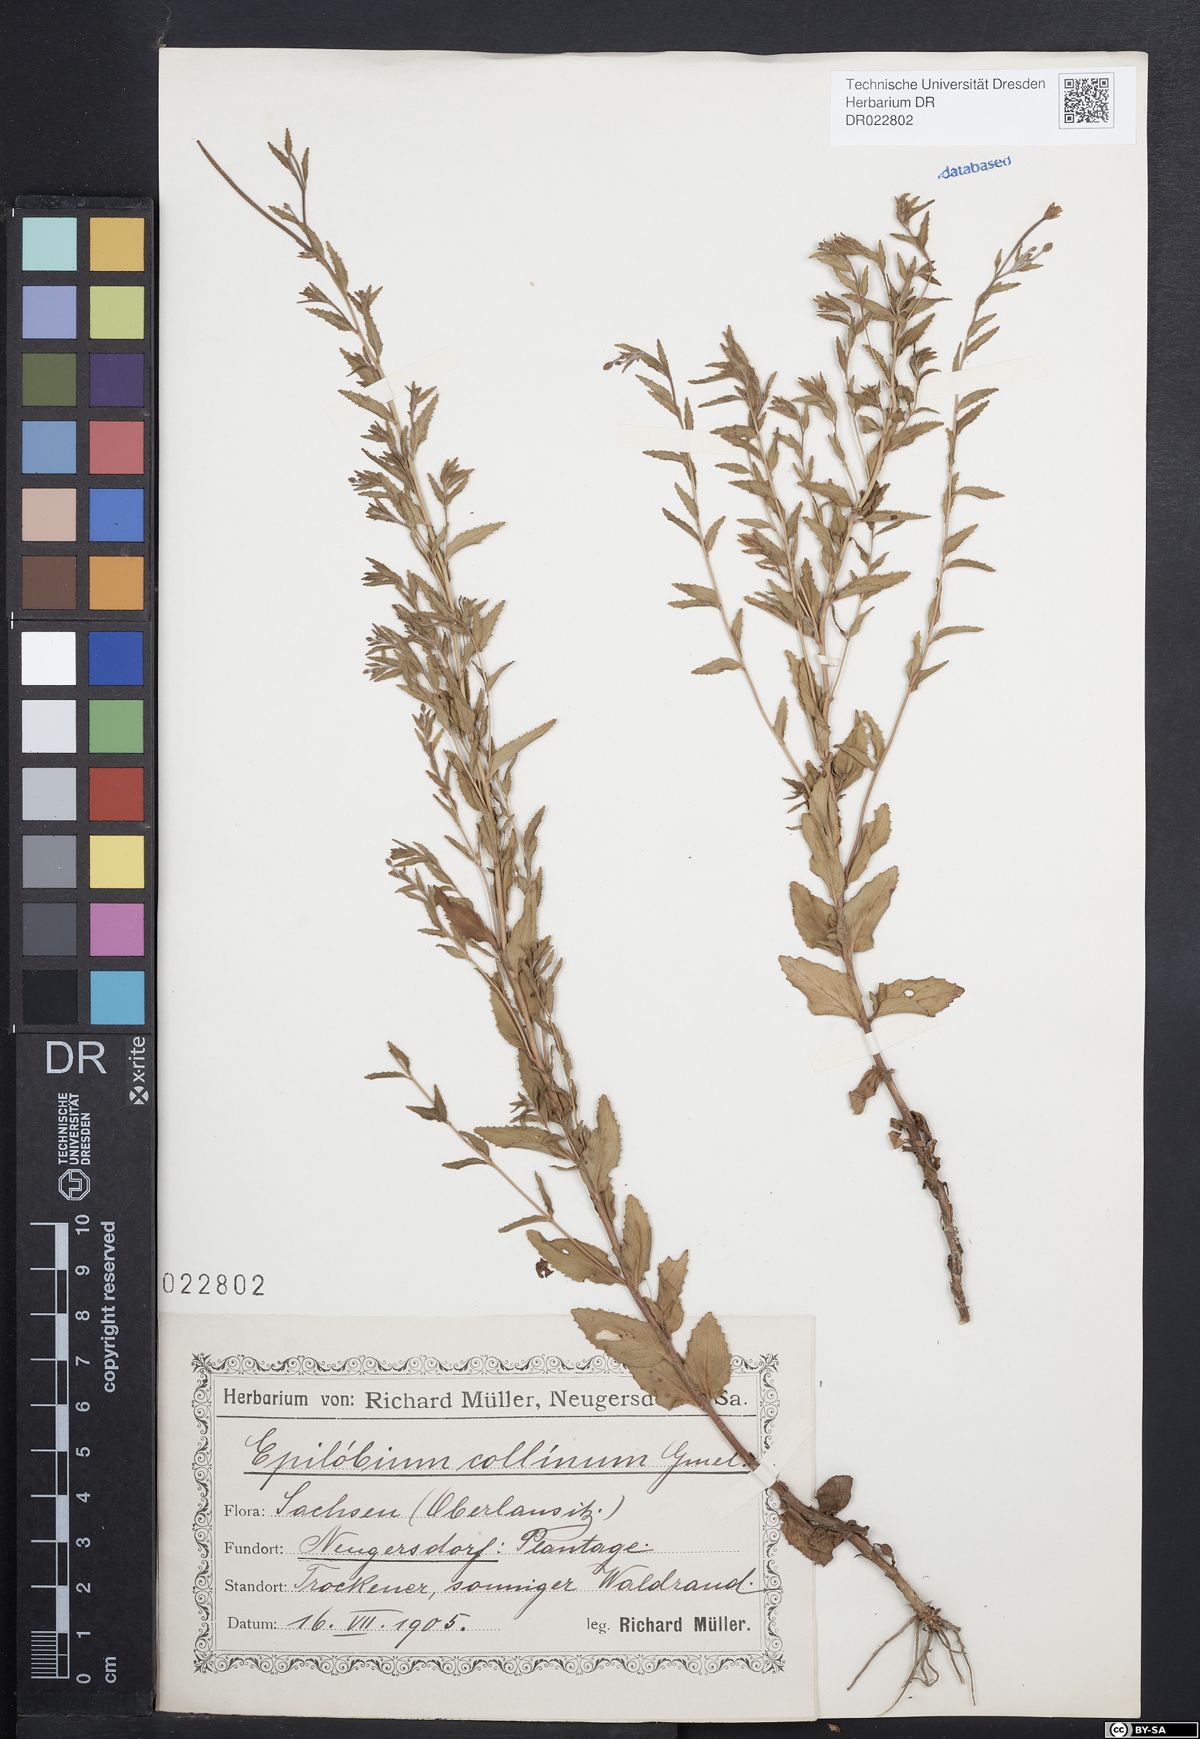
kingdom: Plantae
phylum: Tracheophyta
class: Magnoliopsida
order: Myrtales
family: Onagraceae
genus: Epilobium
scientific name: Epilobium collinum
